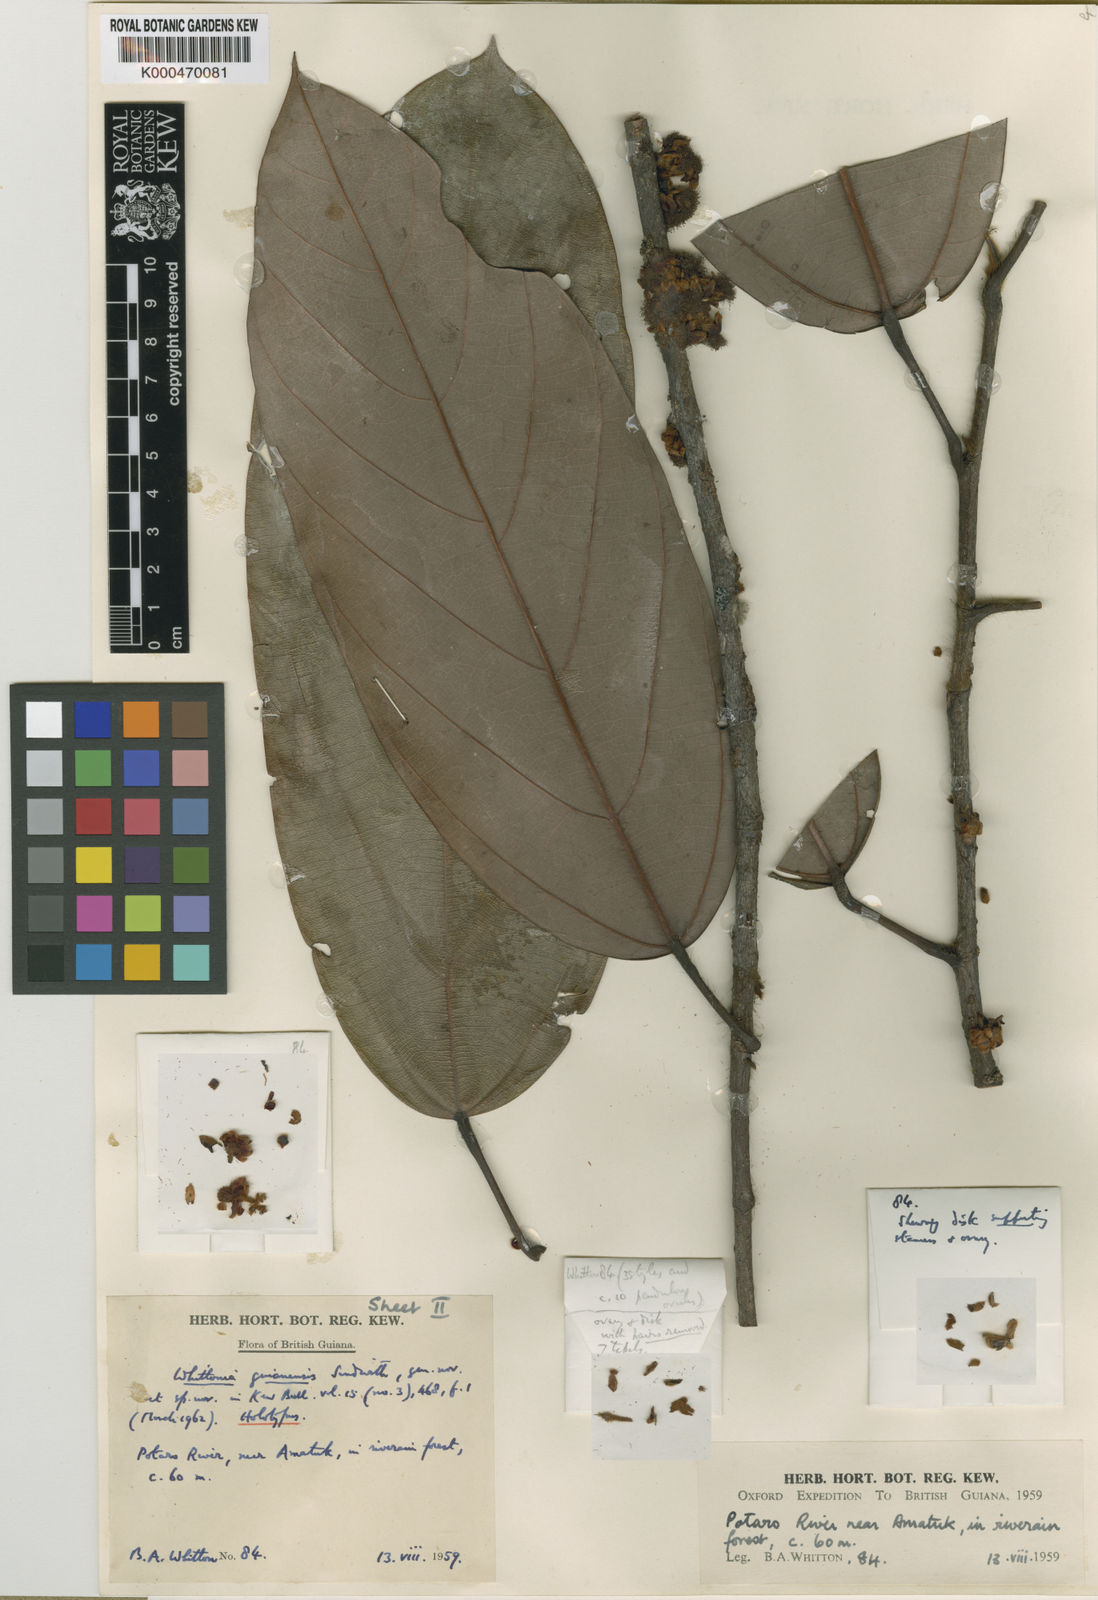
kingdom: Plantae
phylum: Tracheophyta
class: Magnoliopsida
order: Saxifragales
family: Peridiscaceae
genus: Whittonia
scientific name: Whittonia guianensis
